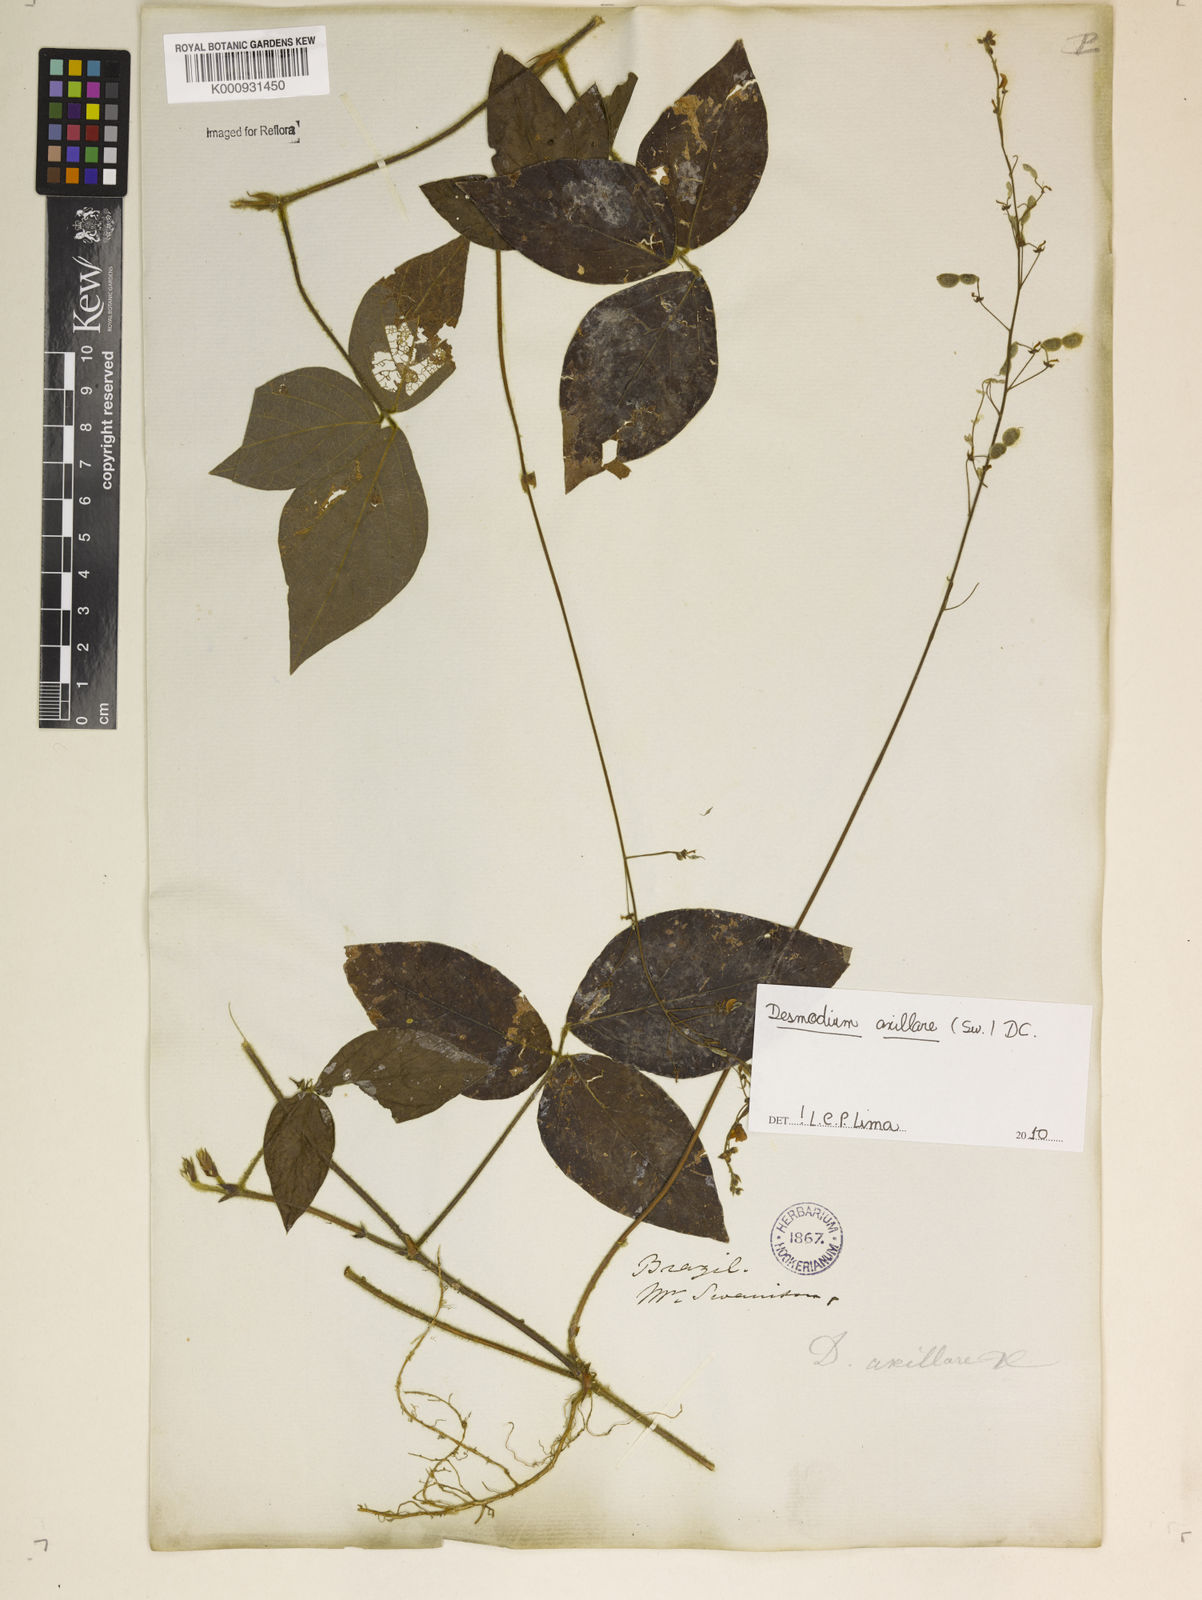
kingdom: Plantae
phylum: Tracheophyta
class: Magnoliopsida
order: Fabales
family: Fabaceae
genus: Desmodium
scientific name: Desmodium axillare
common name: Wire with
